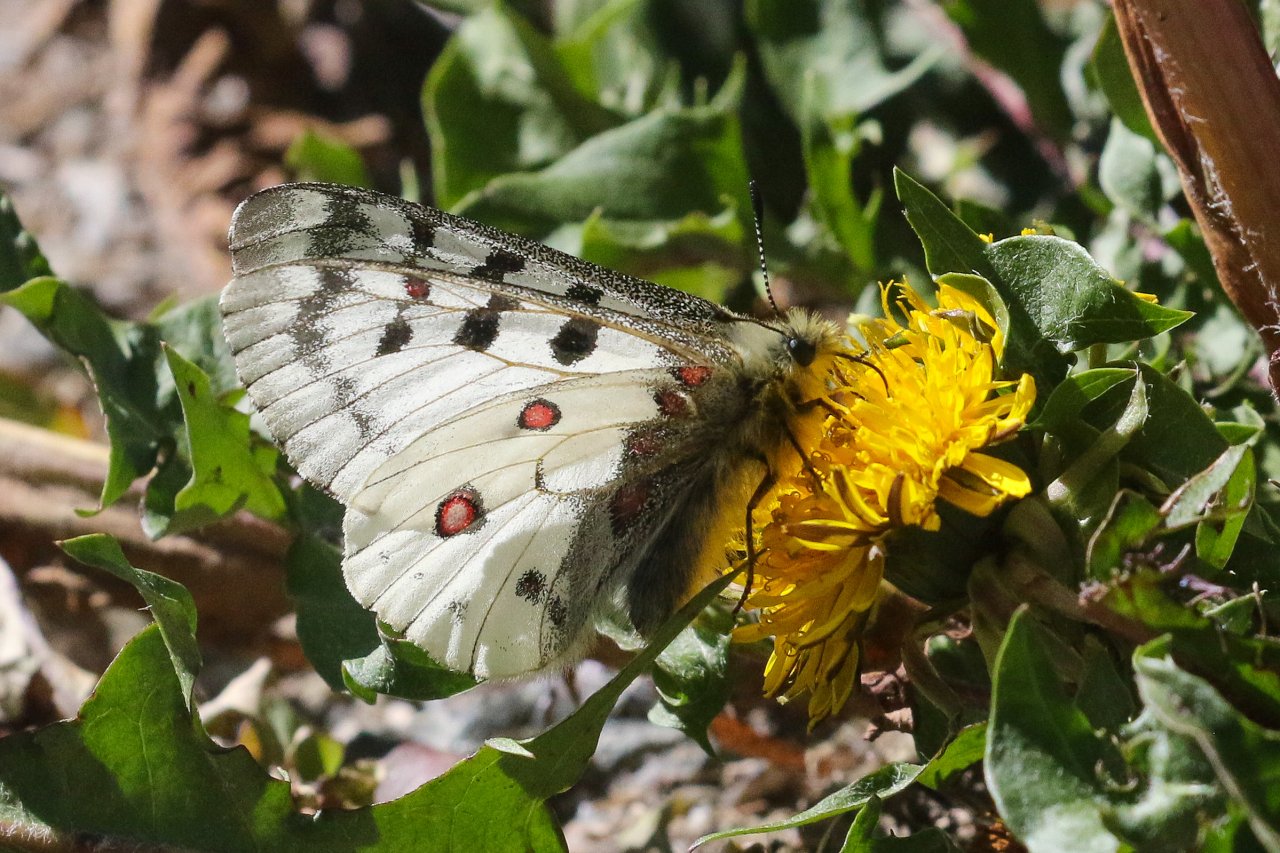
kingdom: Animalia
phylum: Arthropoda
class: Insecta
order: Lepidoptera
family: Papilionidae
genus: Parnassius
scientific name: Parnassius smintheus
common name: Rocky Mountain Parnassian
